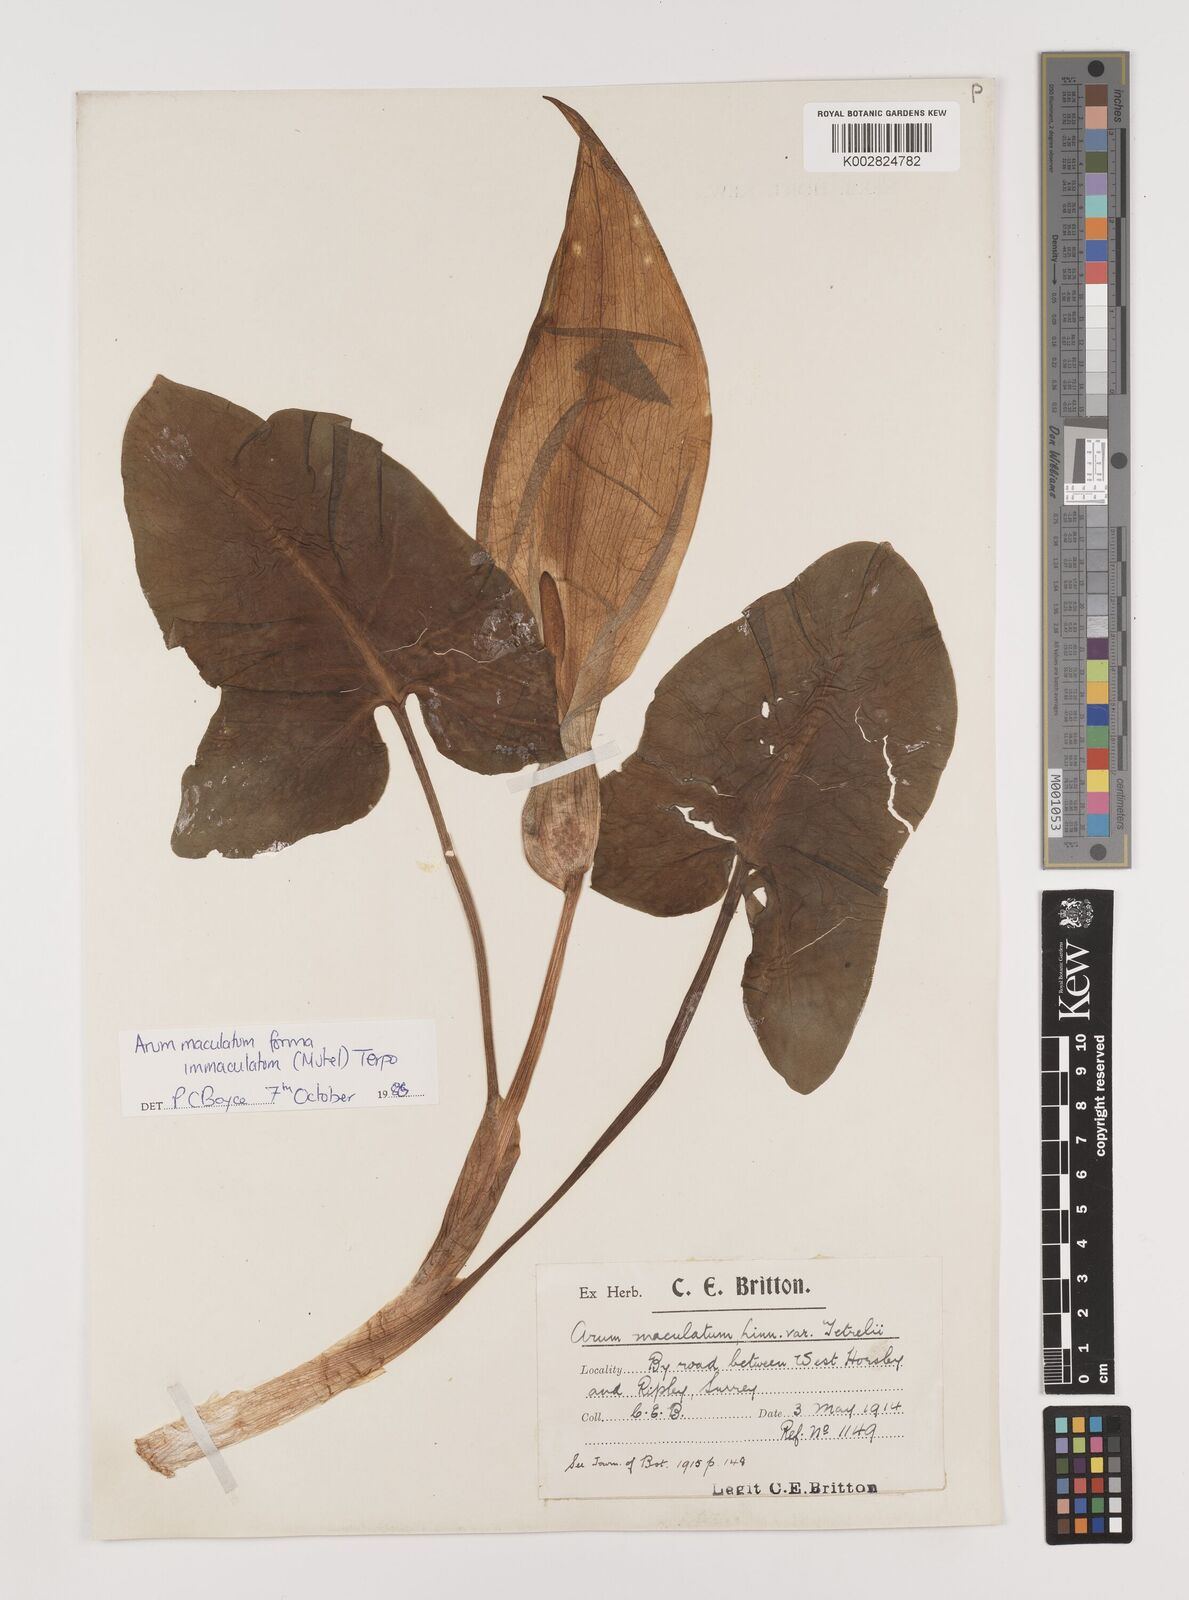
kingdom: Plantae
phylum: Tracheophyta
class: Liliopsida
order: Alismatales
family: Araceae
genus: Arum
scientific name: Arum maculatum
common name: Lords-and-ladies
